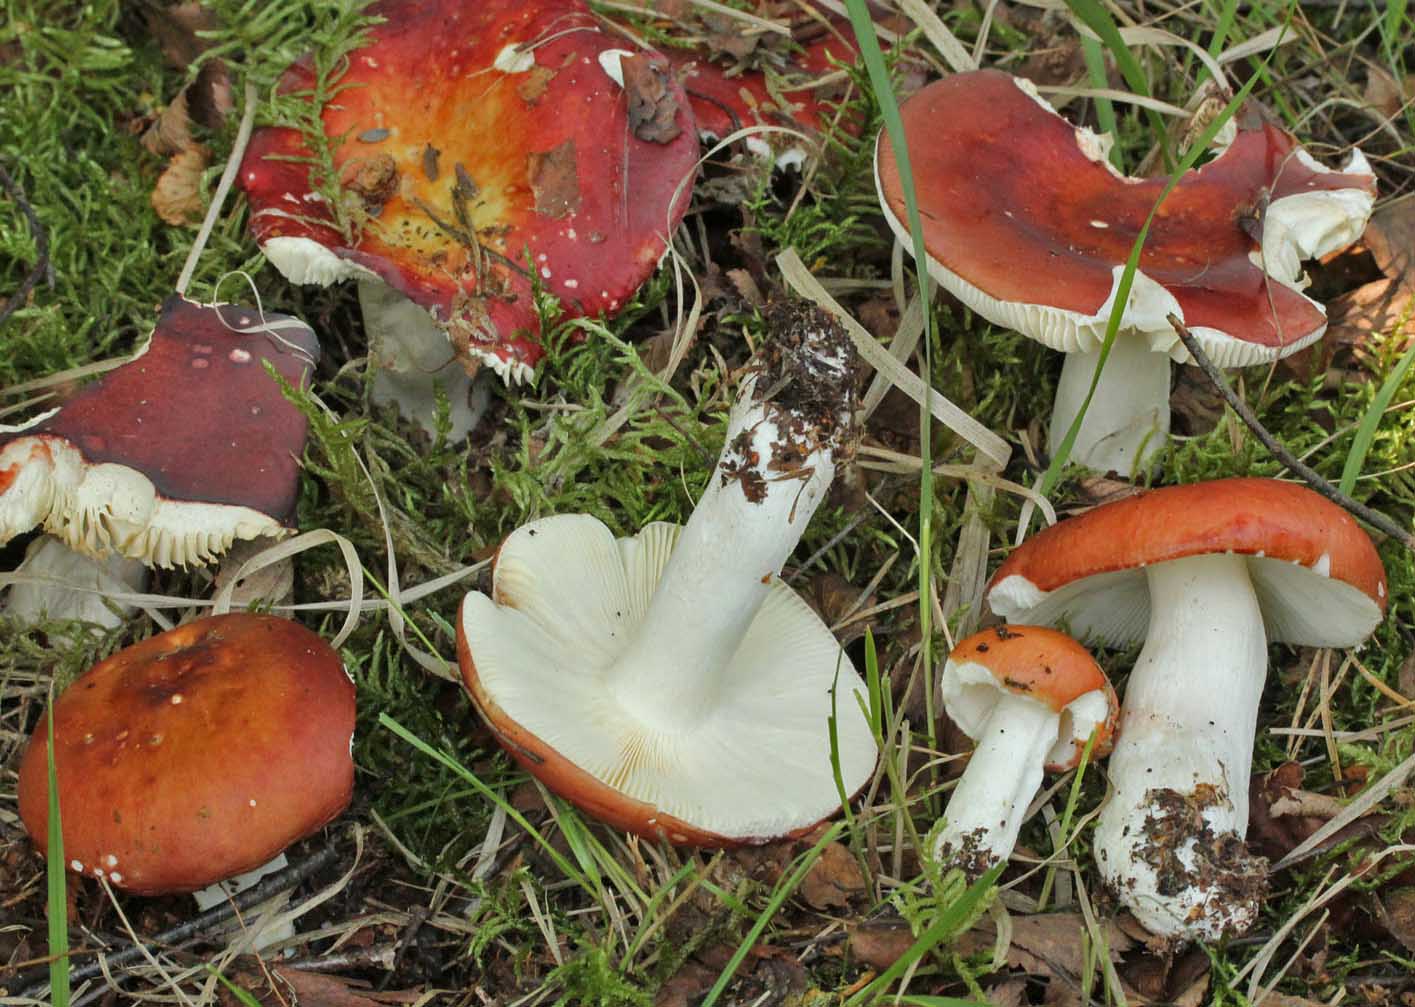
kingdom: Fungi
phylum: Basidiomycota
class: Agaricomycetes
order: Russulales
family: Russulaceae
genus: Russula
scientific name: Russula paludosa
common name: prægtig skørhat
